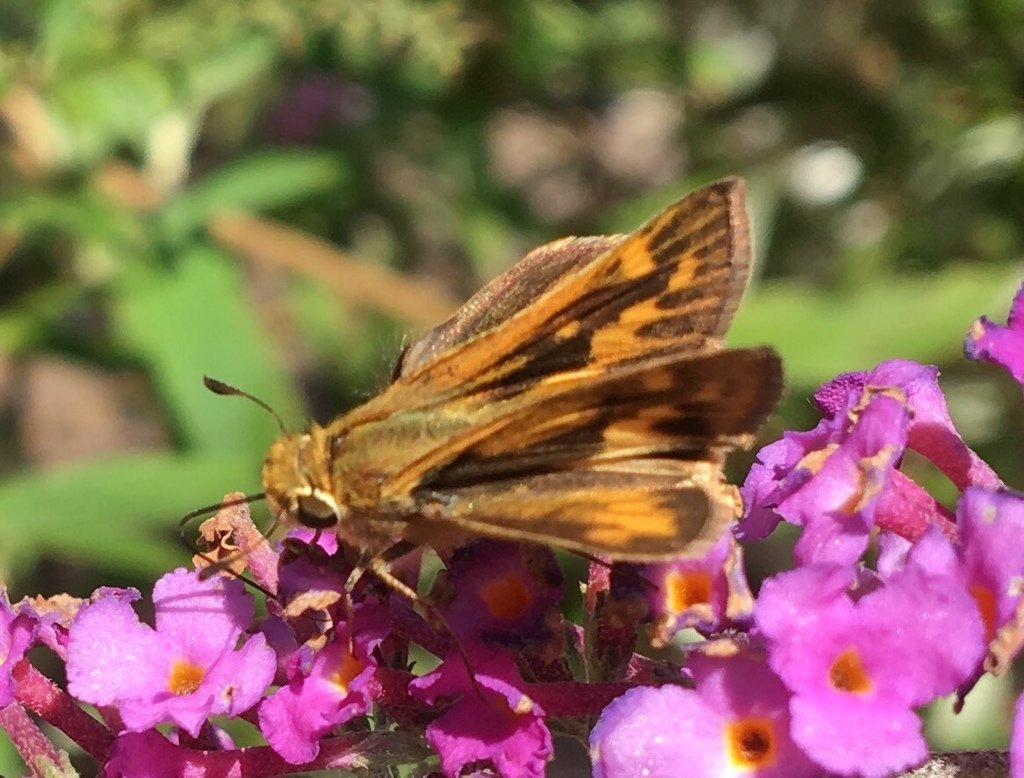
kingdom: Animalia
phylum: Arthropoda
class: Insecta
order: Lepidoptera
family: Hesperiidae
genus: Hylephila
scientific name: Hylephila phyleus
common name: Fiery Skipper
